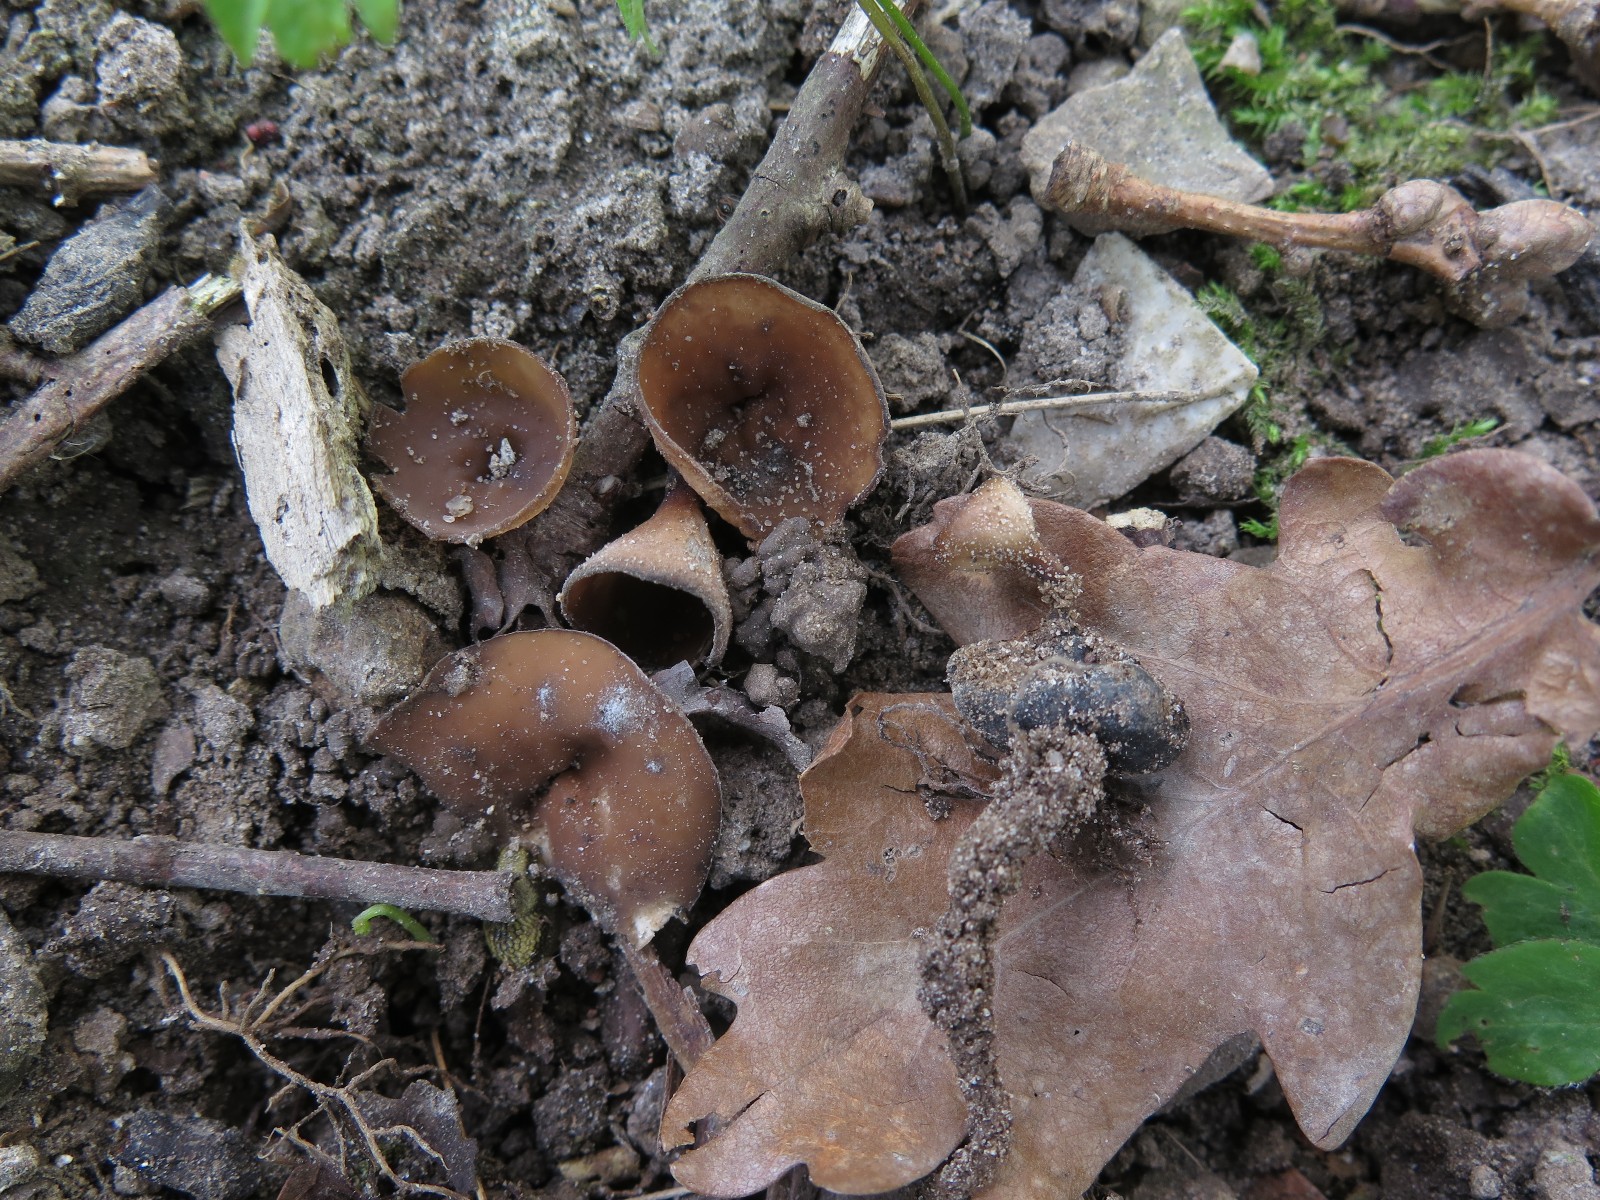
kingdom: Fungi
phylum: Ascomycota
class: Leotiomycetes
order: Helotiales
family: Sclerotiniaceae
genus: Dumontinia
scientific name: Dumontinia tuberosa
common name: anemone-knoldskive
